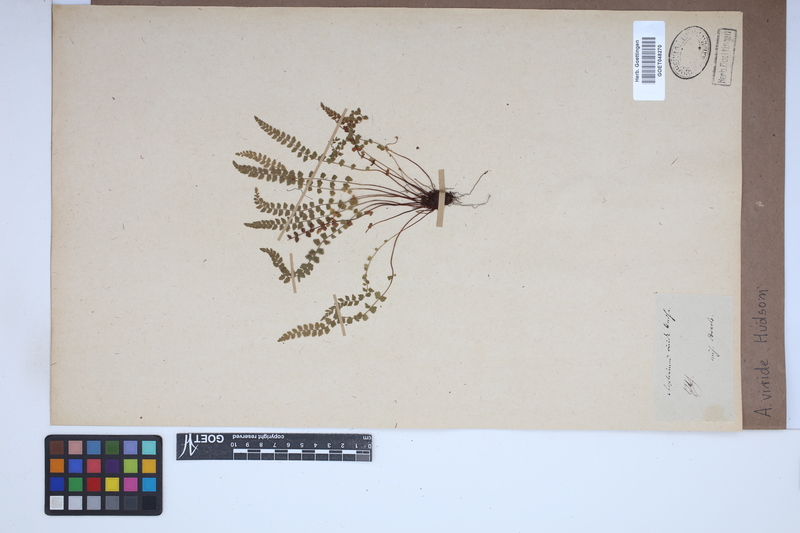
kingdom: Plantae
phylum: Tracheophyta
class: Polypodiopsida
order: Polypodiales
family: Aspleniaceae
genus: Asplenium
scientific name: Asplenium viride
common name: Green spleenwort
